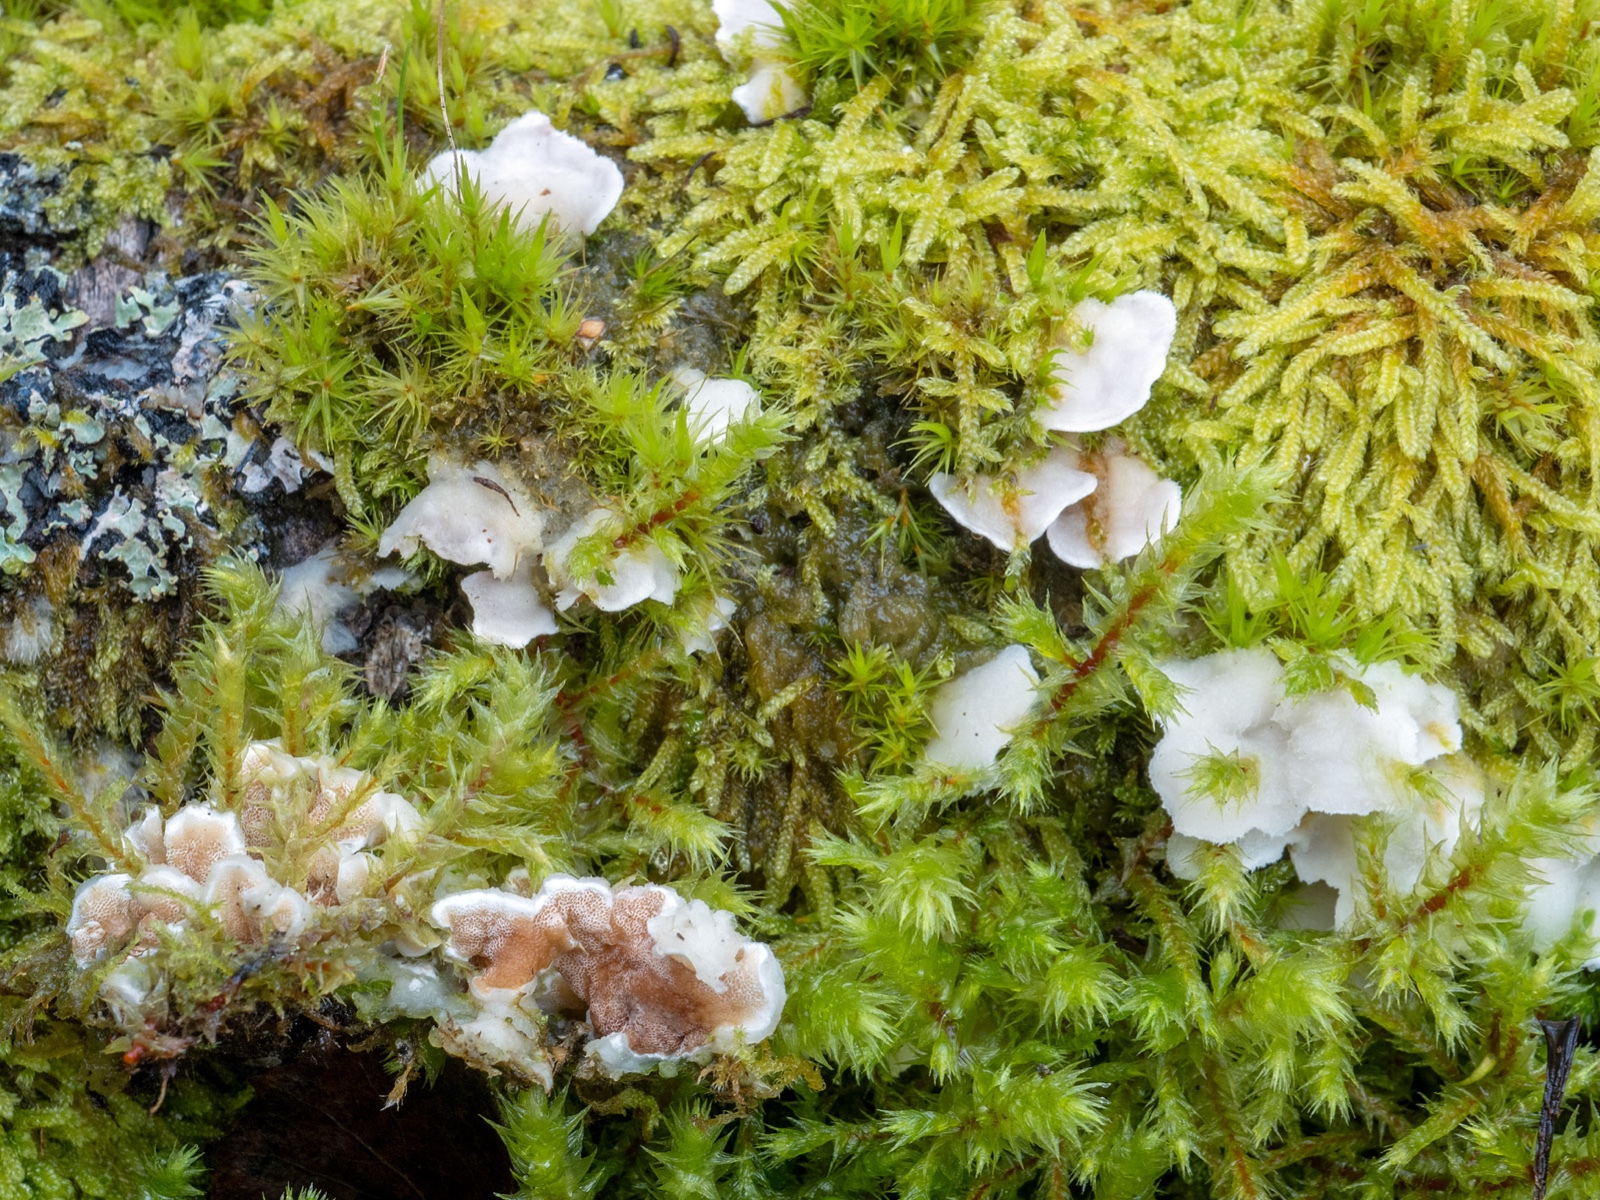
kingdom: Fungi
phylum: Basidiomycota
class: Agaricomycetes
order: Polyporales
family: Irpicaceae
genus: Vitreoporus
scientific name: Vitreoporus dichrous
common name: tofarvet foldporesvamp
